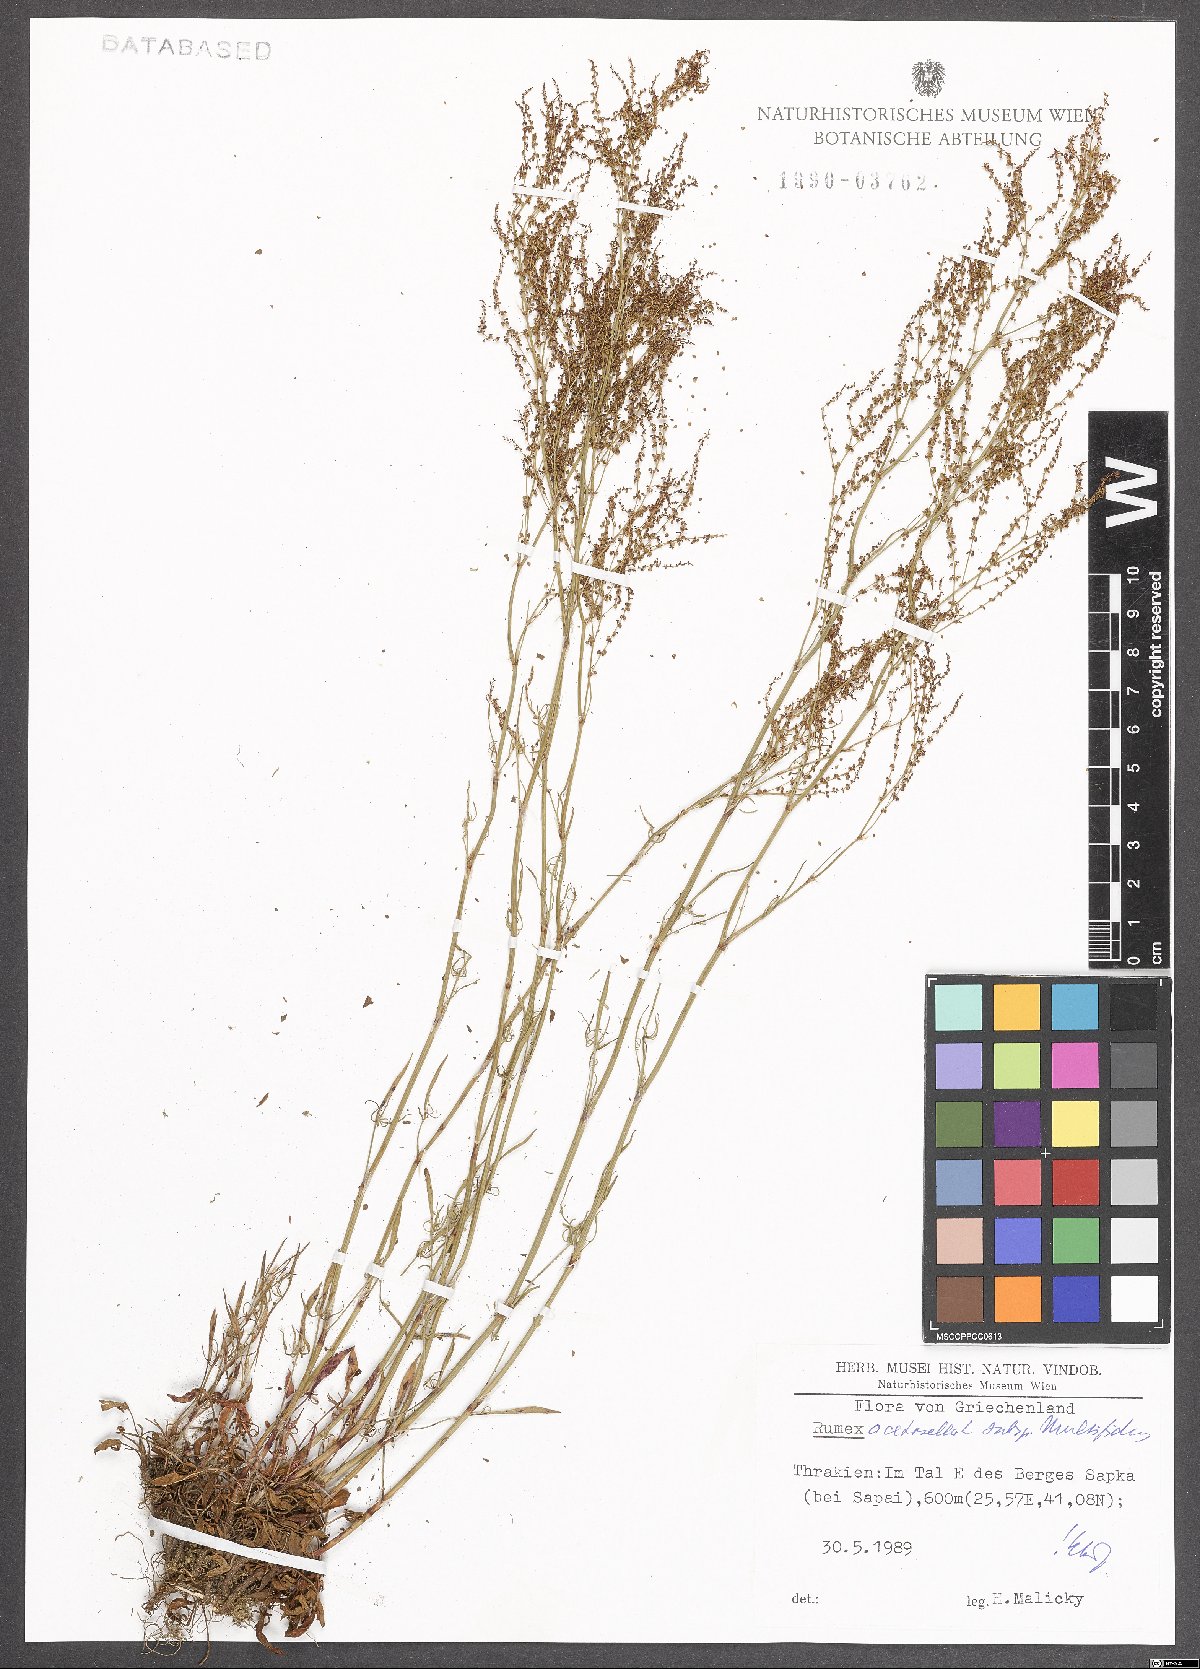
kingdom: Plantae
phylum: Tracheophyta
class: Magnoliopsida
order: Caryophyllales
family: Polygonaceae
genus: Rumex
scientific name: Rumex acetosella
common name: Common sheep sorrel
